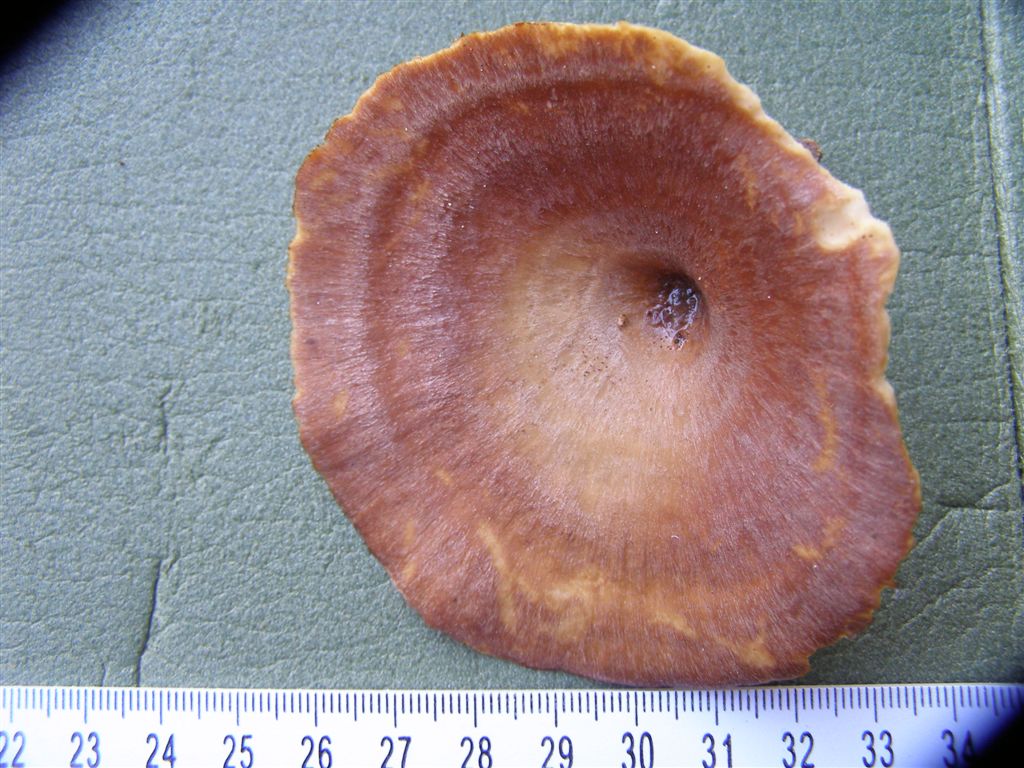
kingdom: Fungi
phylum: Basidiomycota
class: Agaricomycetes
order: Polyporales
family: Polyporaceae
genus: Picipes
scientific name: Picipes tubaeformis
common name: trompet-stilkporesvamp
